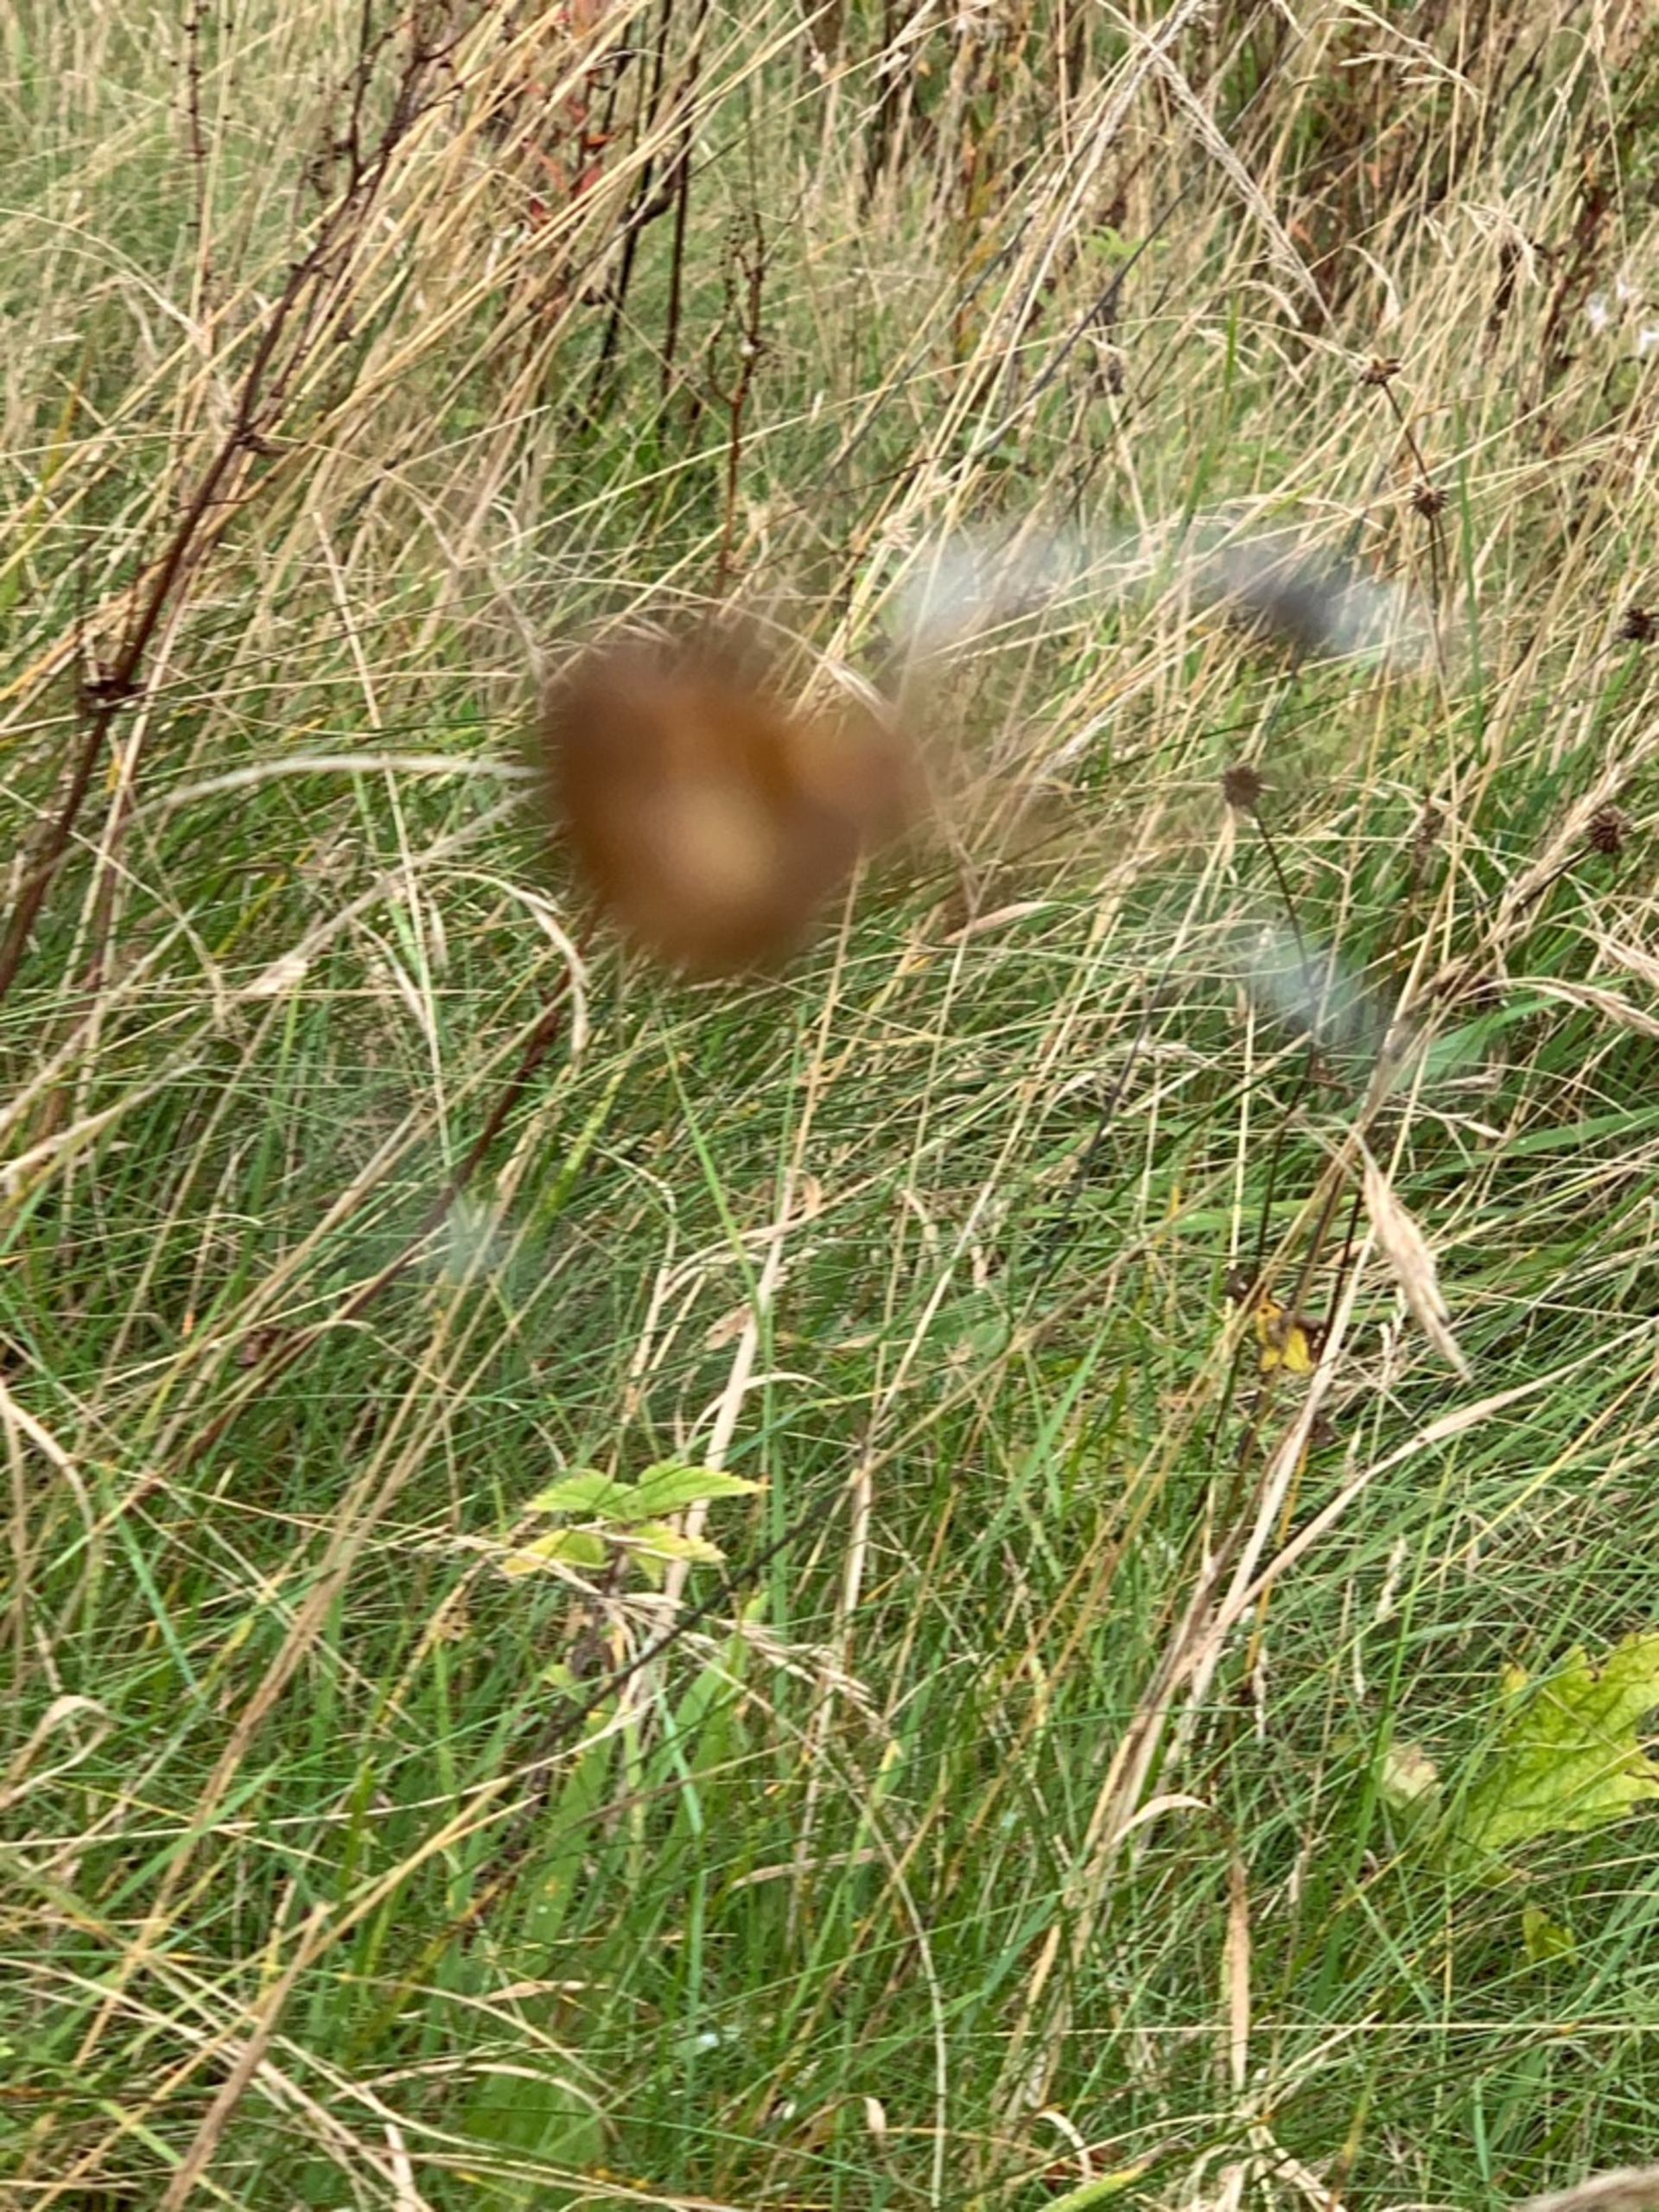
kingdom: Animalia
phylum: Arthropoda
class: Arachnida
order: Araneae
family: Araneidae
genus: Araneus
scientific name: Araneus diadematus
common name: Korsedderkop
